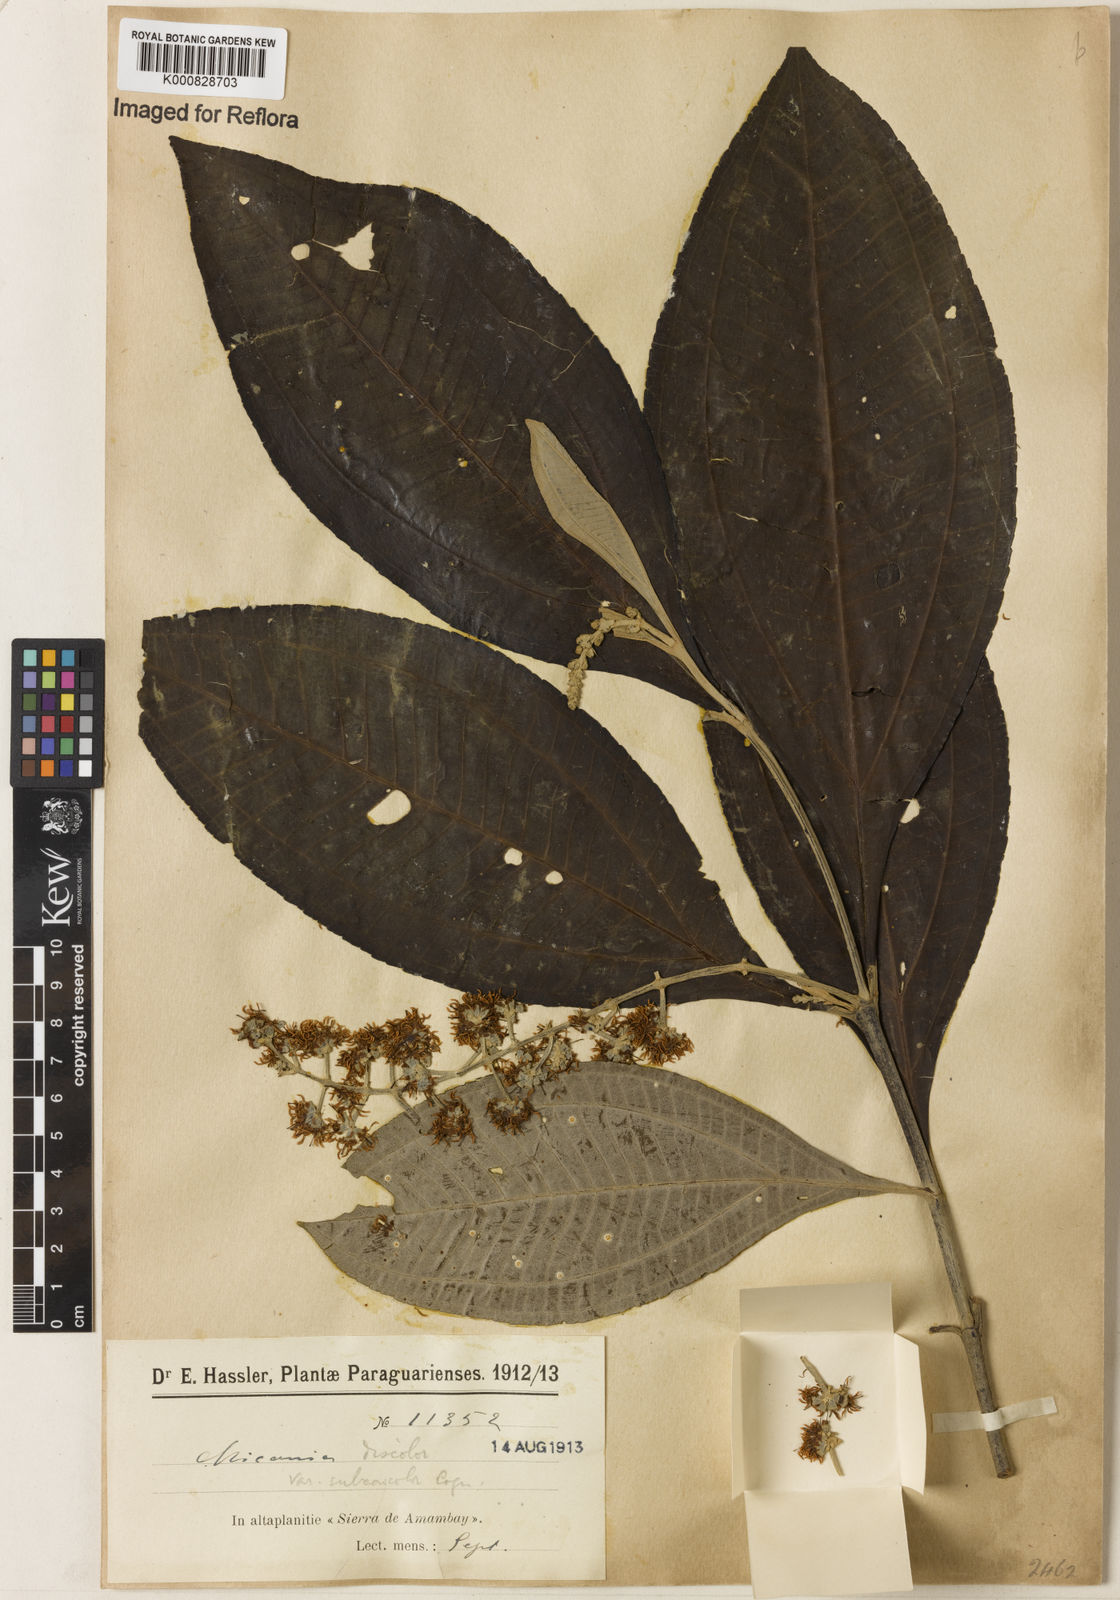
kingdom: Plantae
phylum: Tracheophyta
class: Magnoliopsida
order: Myrtales
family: Melastomataceae
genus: Miconia
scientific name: Miconia discolor
